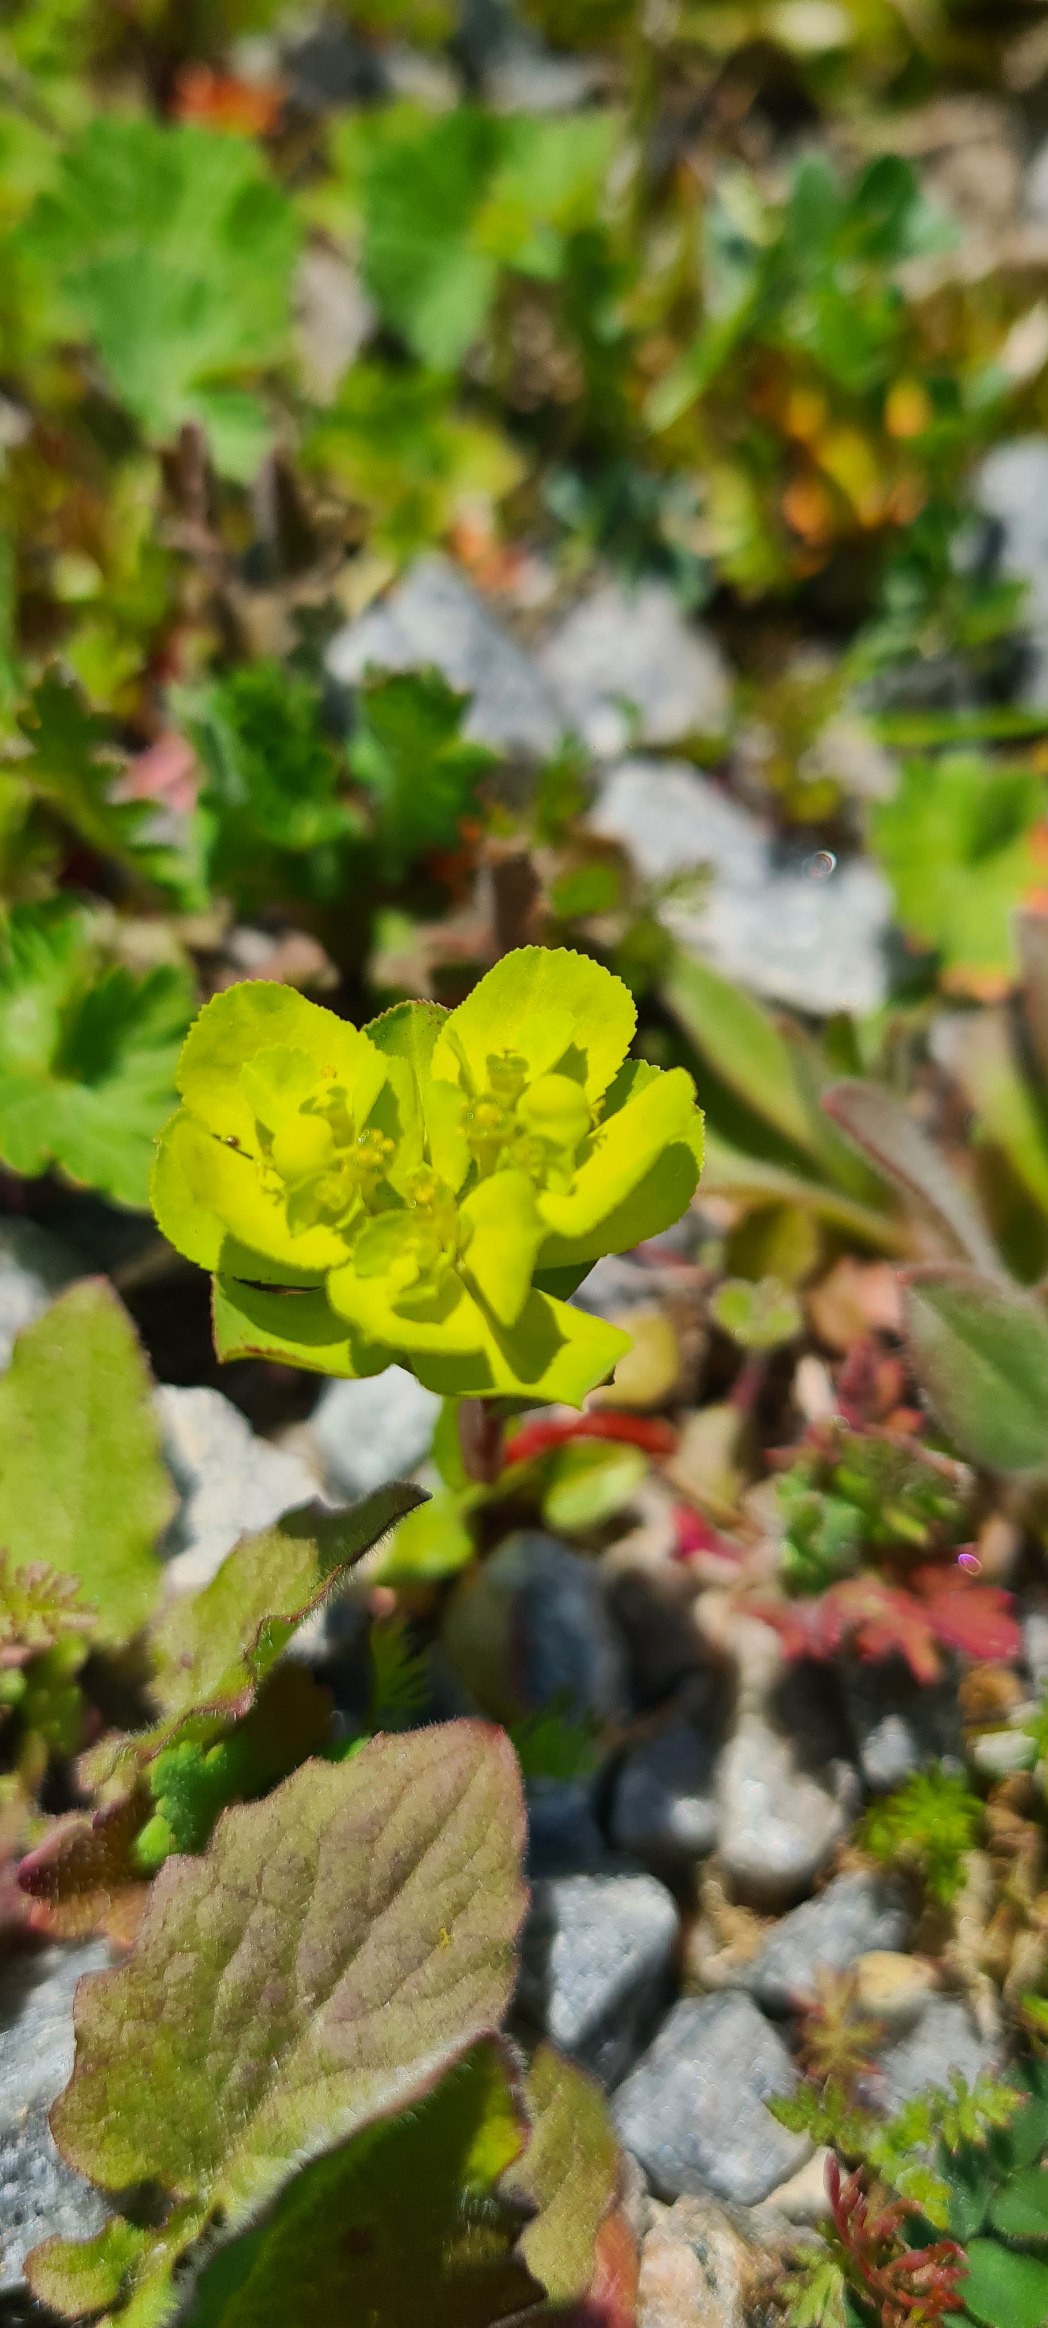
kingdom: Plantae
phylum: Tracheophyta
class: Magnoliopsida
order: Malpighiales
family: Euphorbiaceae
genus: Euphorbia
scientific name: Euphorbia helioscopia
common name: Skærm-vortemælk
